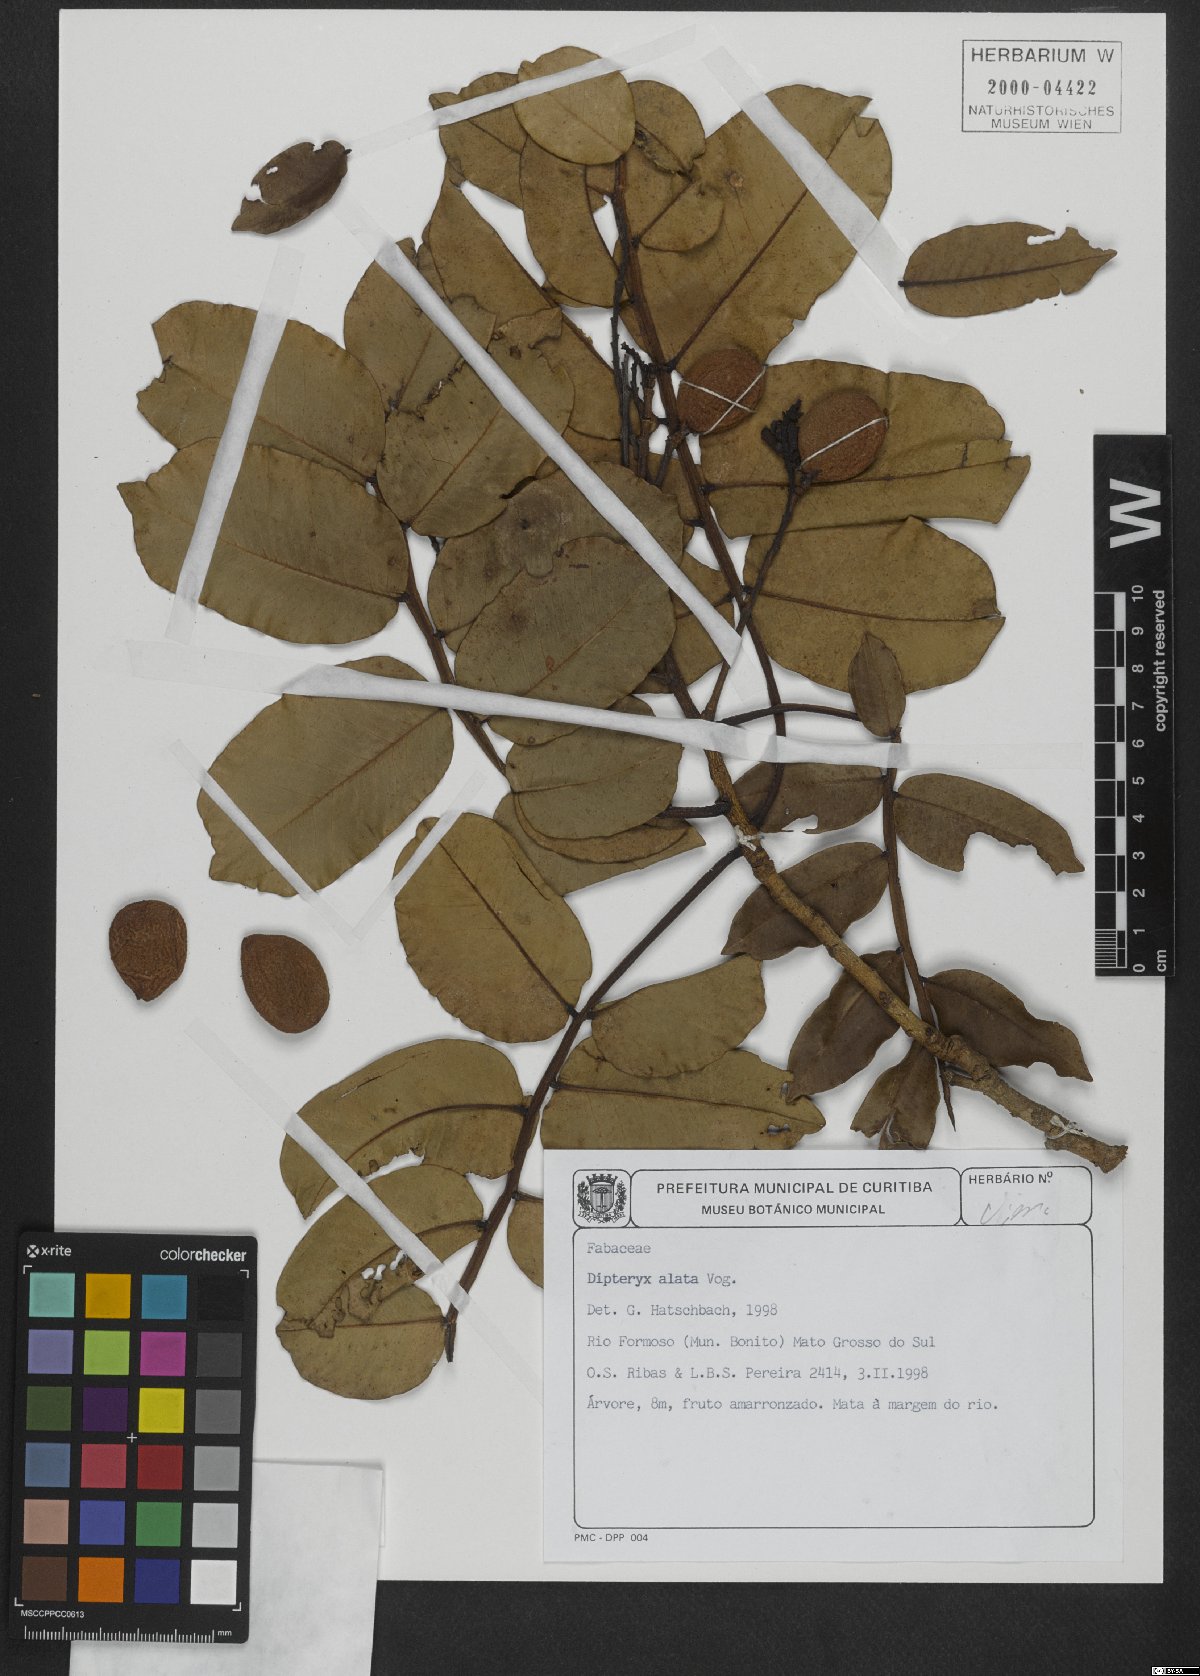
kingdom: Plantae
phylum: Tracheophyta
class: Magnoliopsida
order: Fabales
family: Fabaceae
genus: Dipteryx
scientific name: Dipteryx alata
